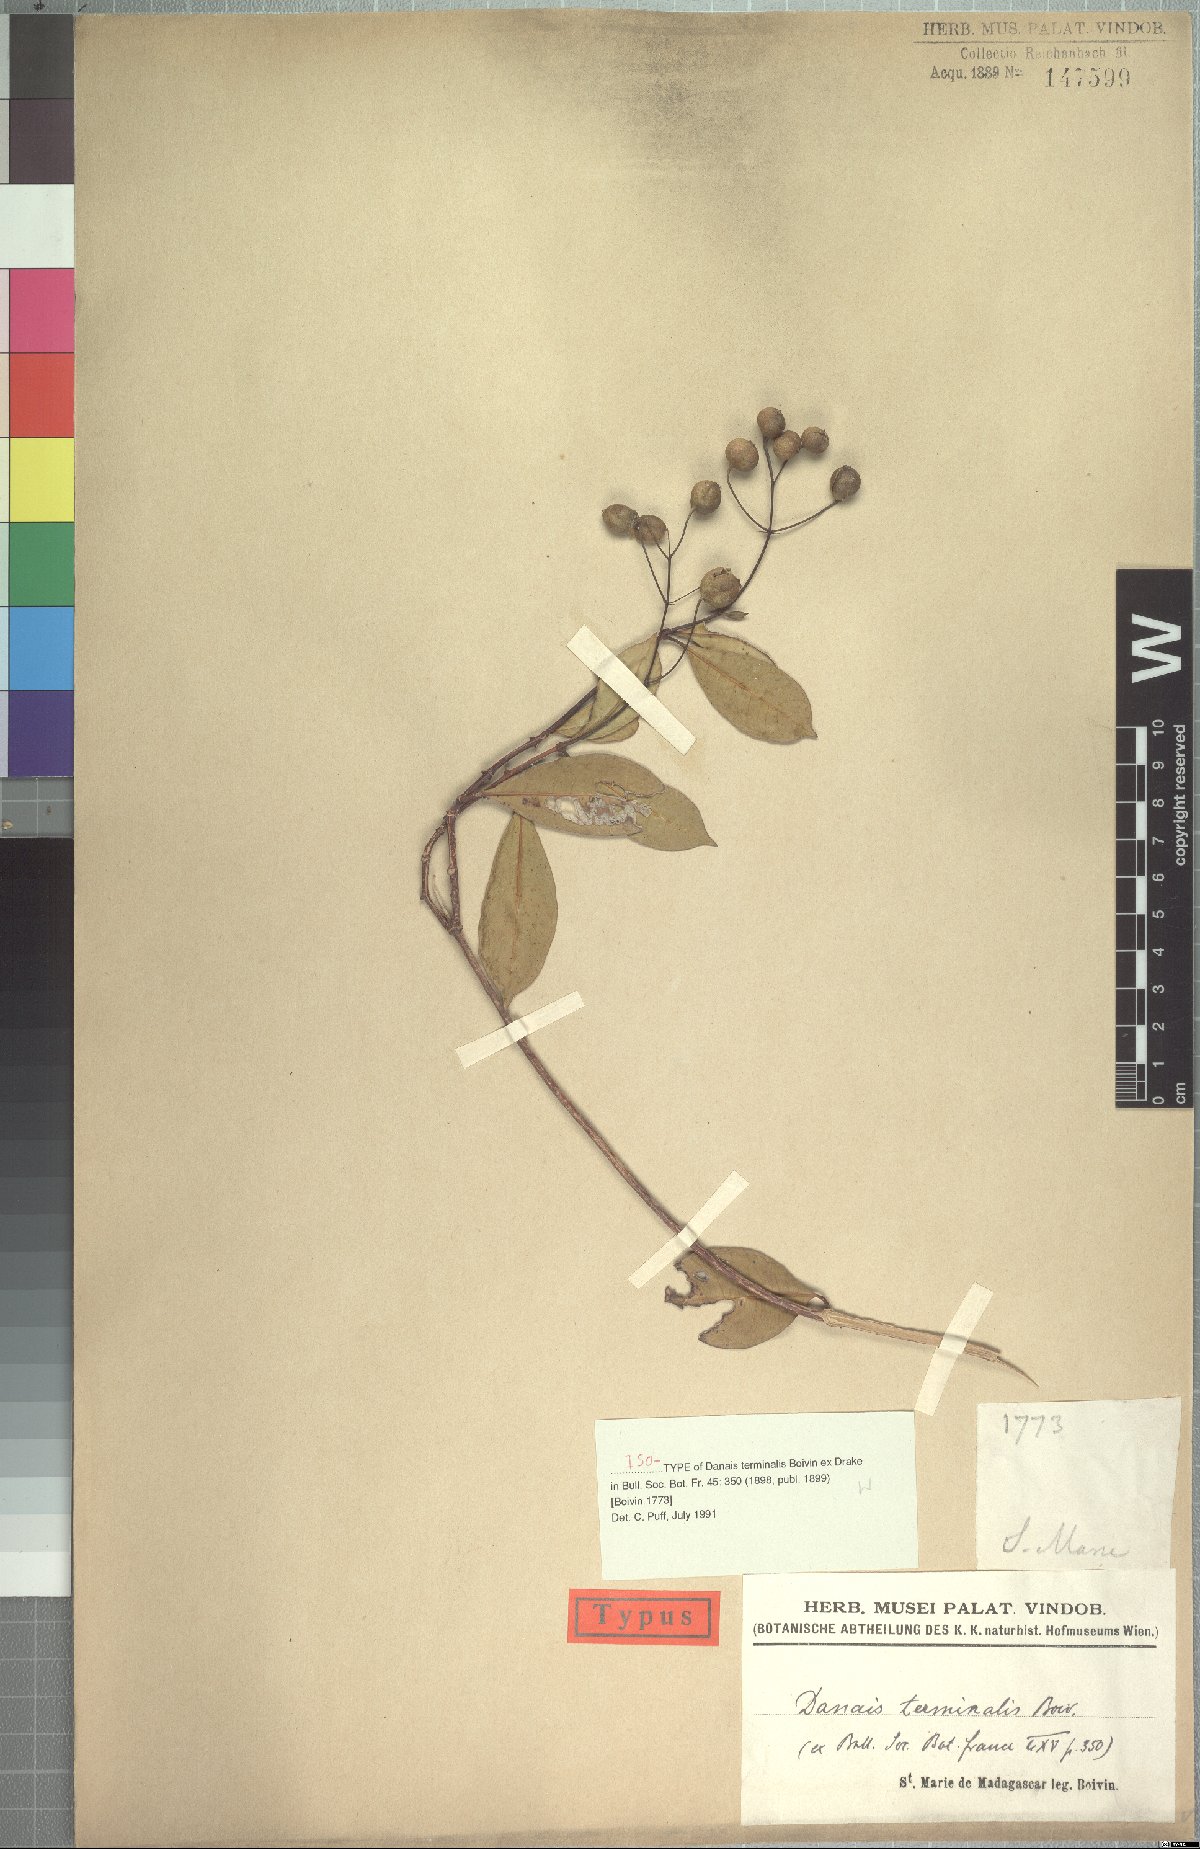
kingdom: Plantae
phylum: Tracheophyta
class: Magnoliopsida
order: Gentianales
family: Rubiaceae
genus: Danais
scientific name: Danais terminalis
